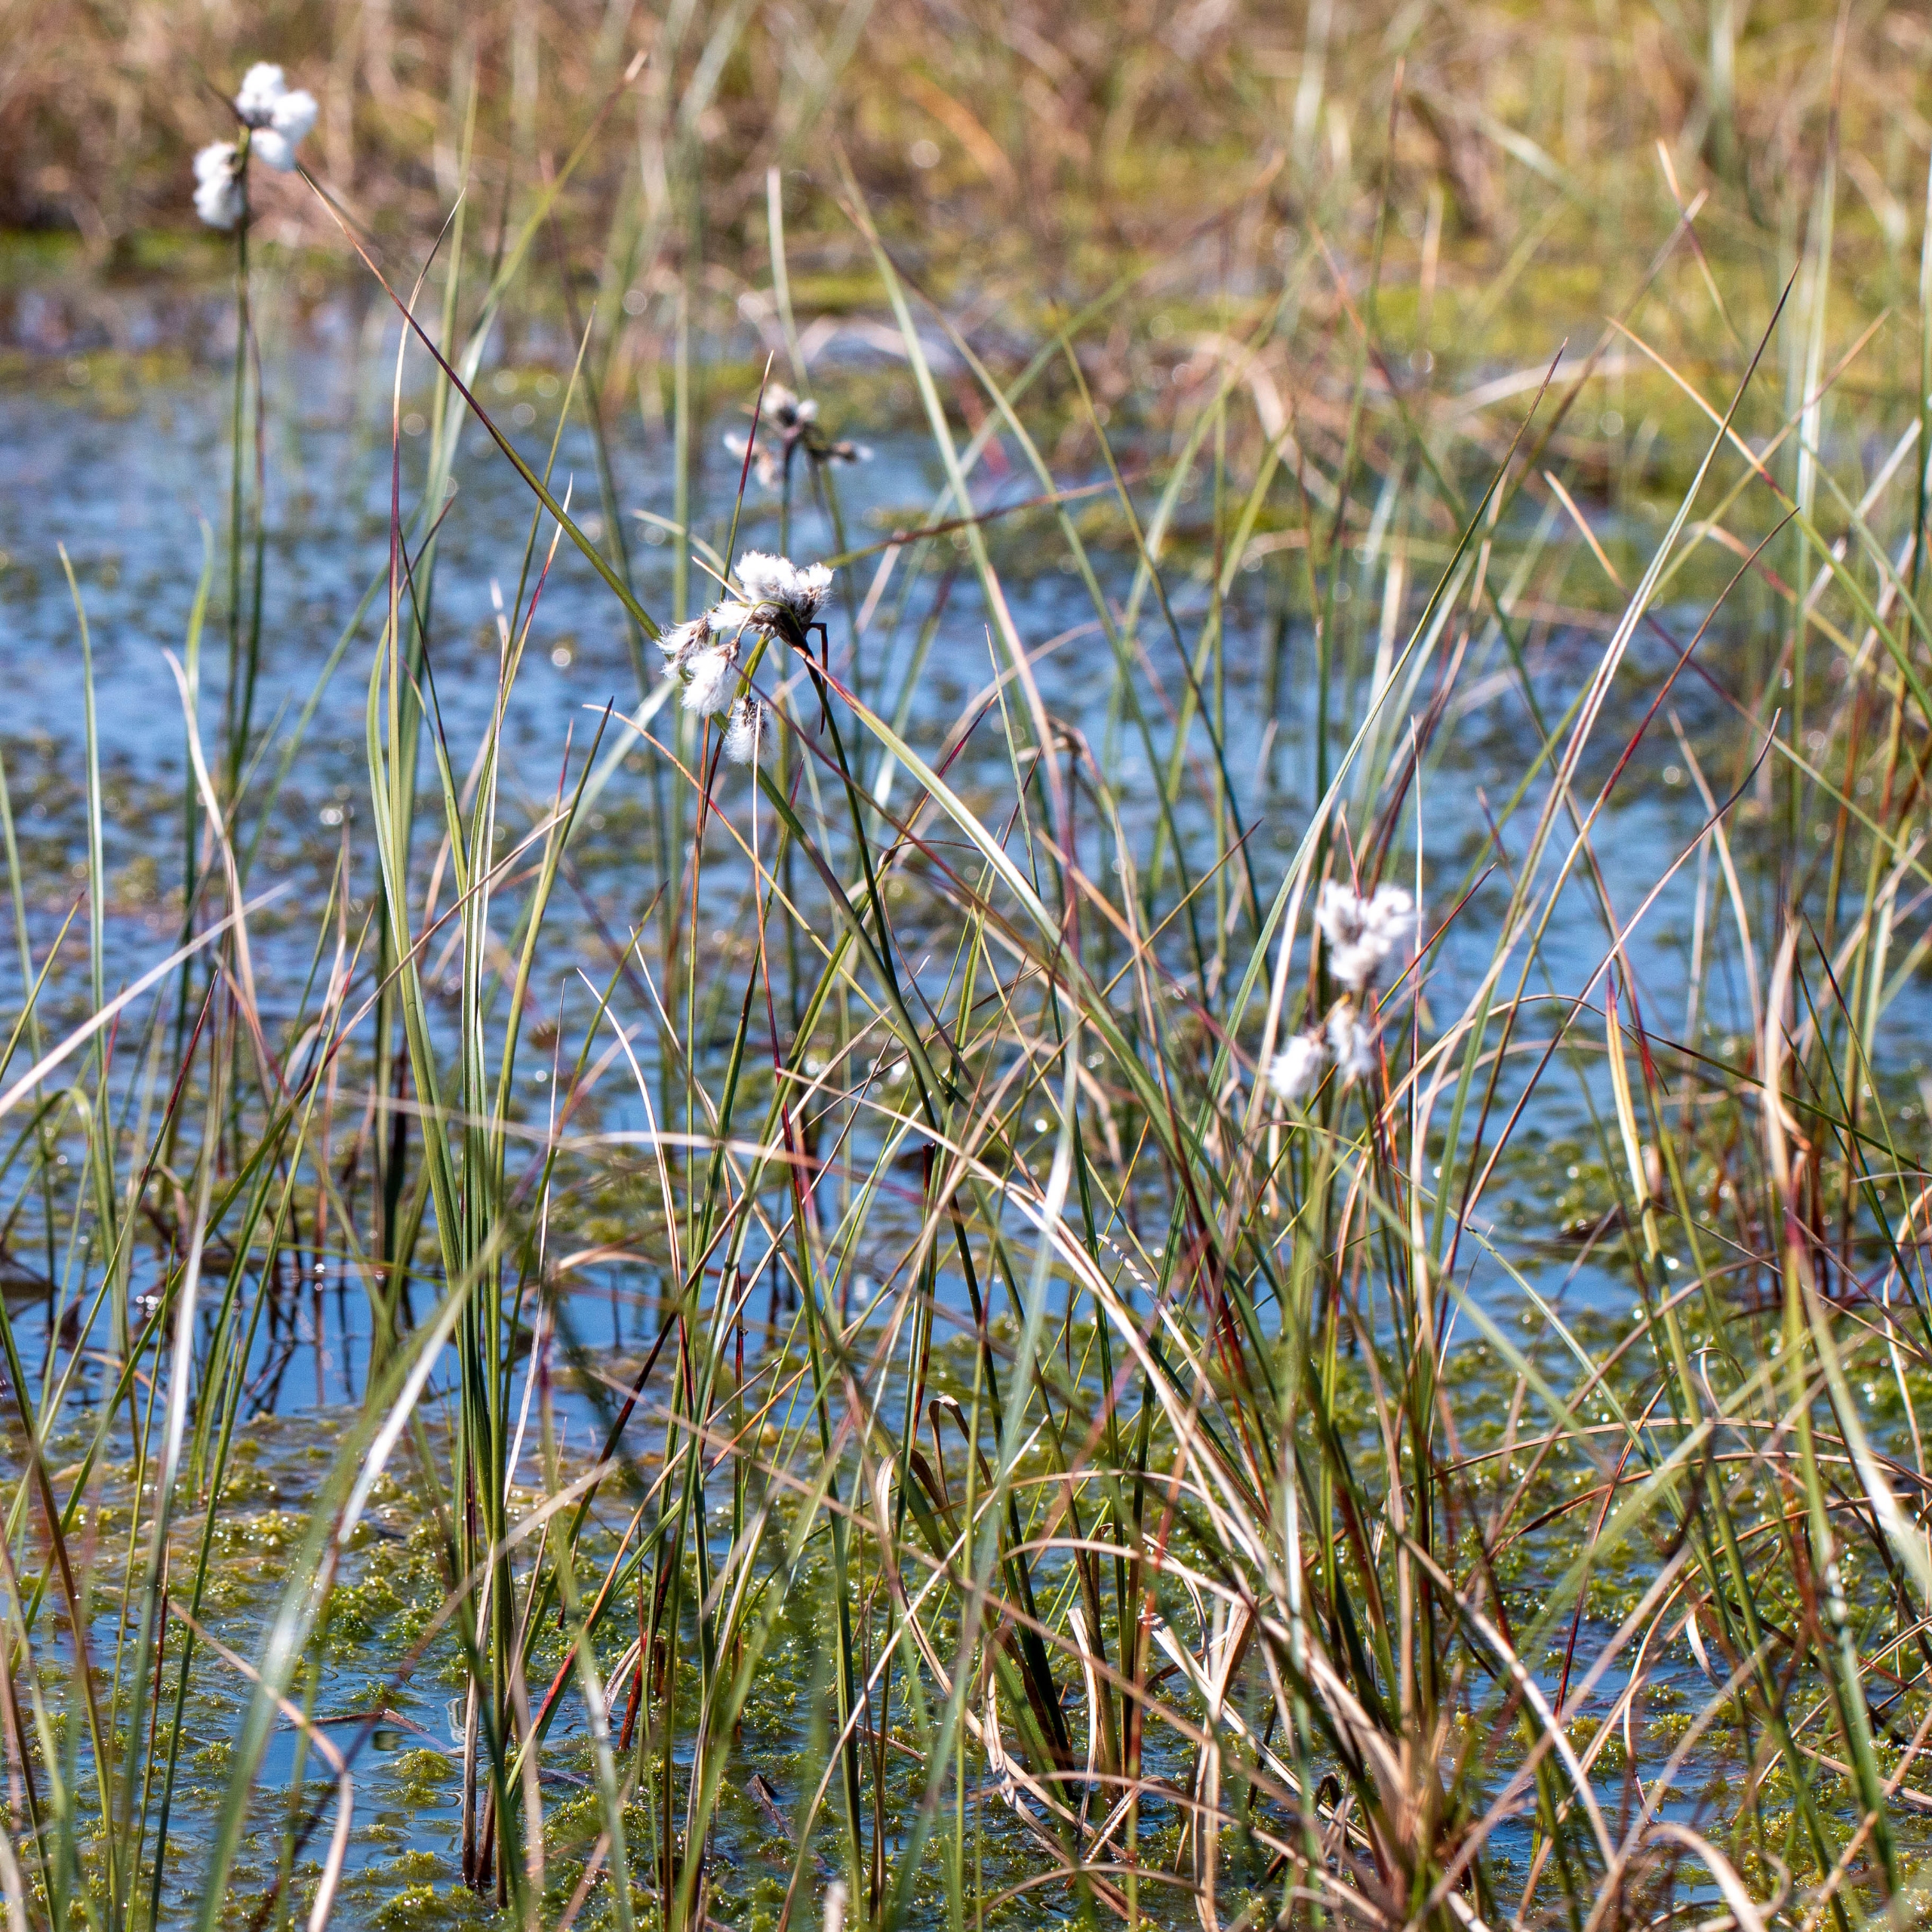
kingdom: Plantae
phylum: Tracheophyta
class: Liliopsida
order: Poales
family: Cyperaceae
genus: Eriophorum
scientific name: Eriophorum angustifolium
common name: Smalbladet kæruld
